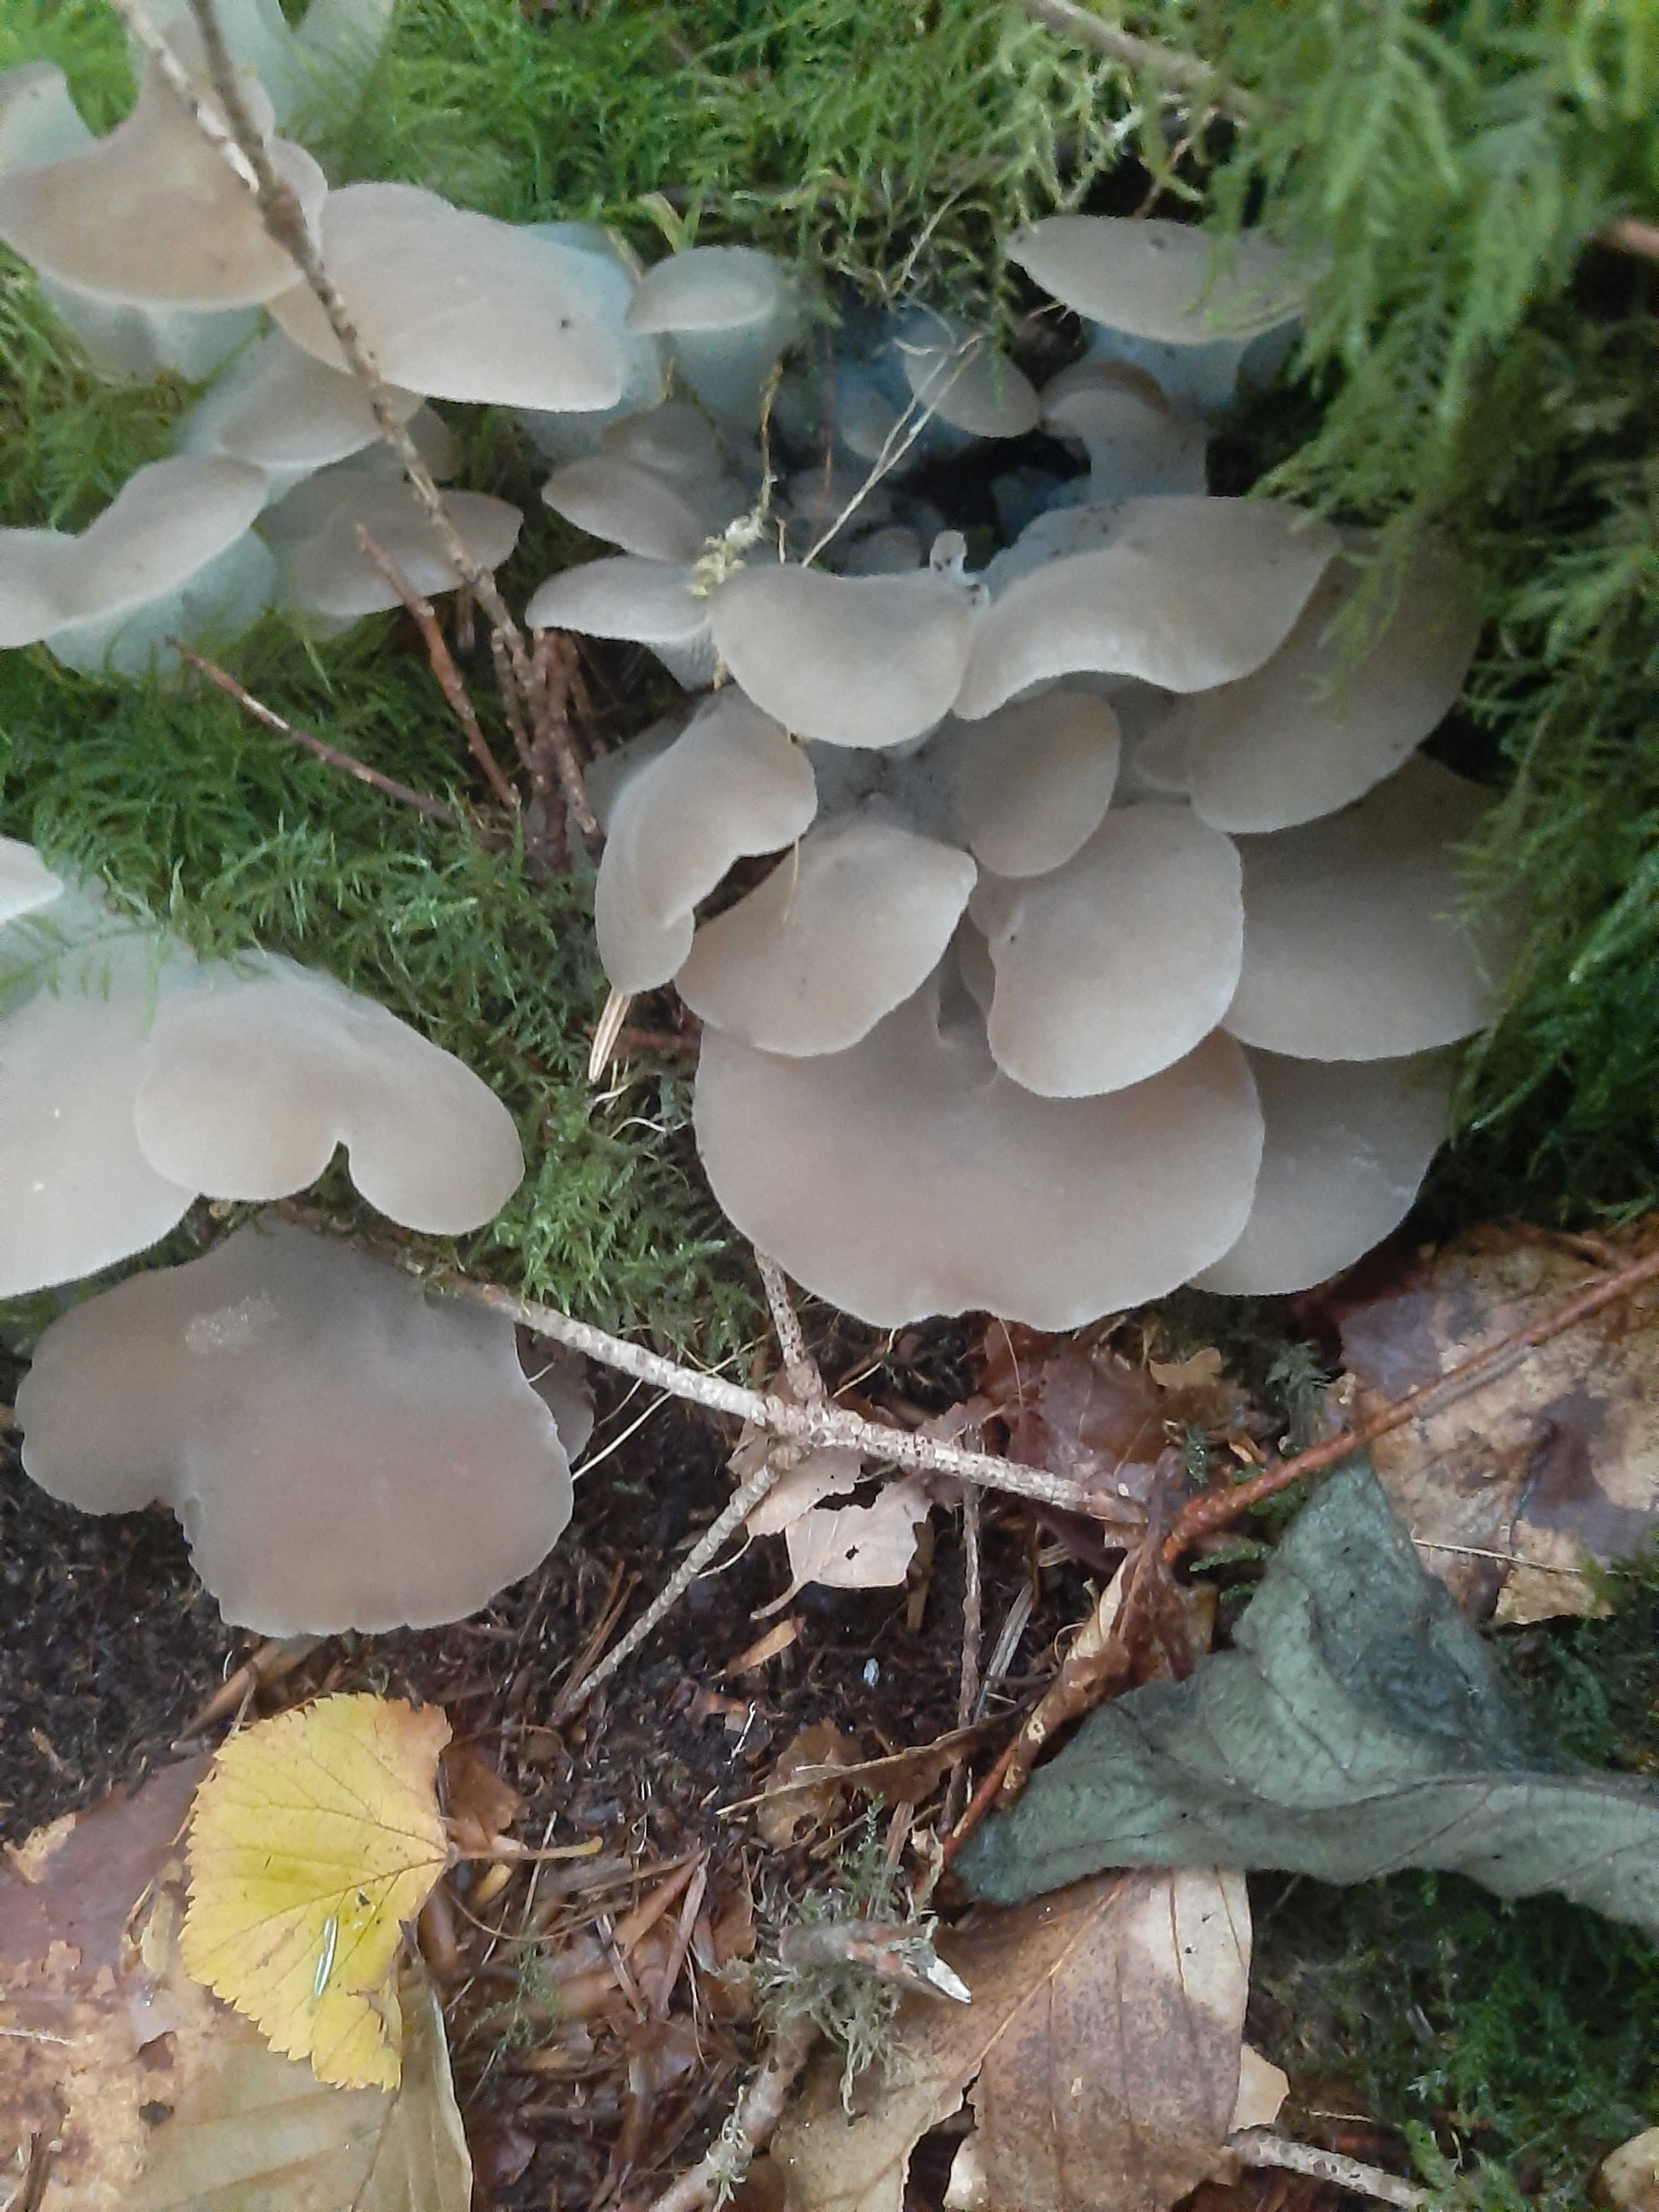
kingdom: Fungi
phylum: Basidiomycota
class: Agaricomycetes
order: Auriculariales
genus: Pseudohydnum
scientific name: Pseudohydnum gelatinosum
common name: bævretand
